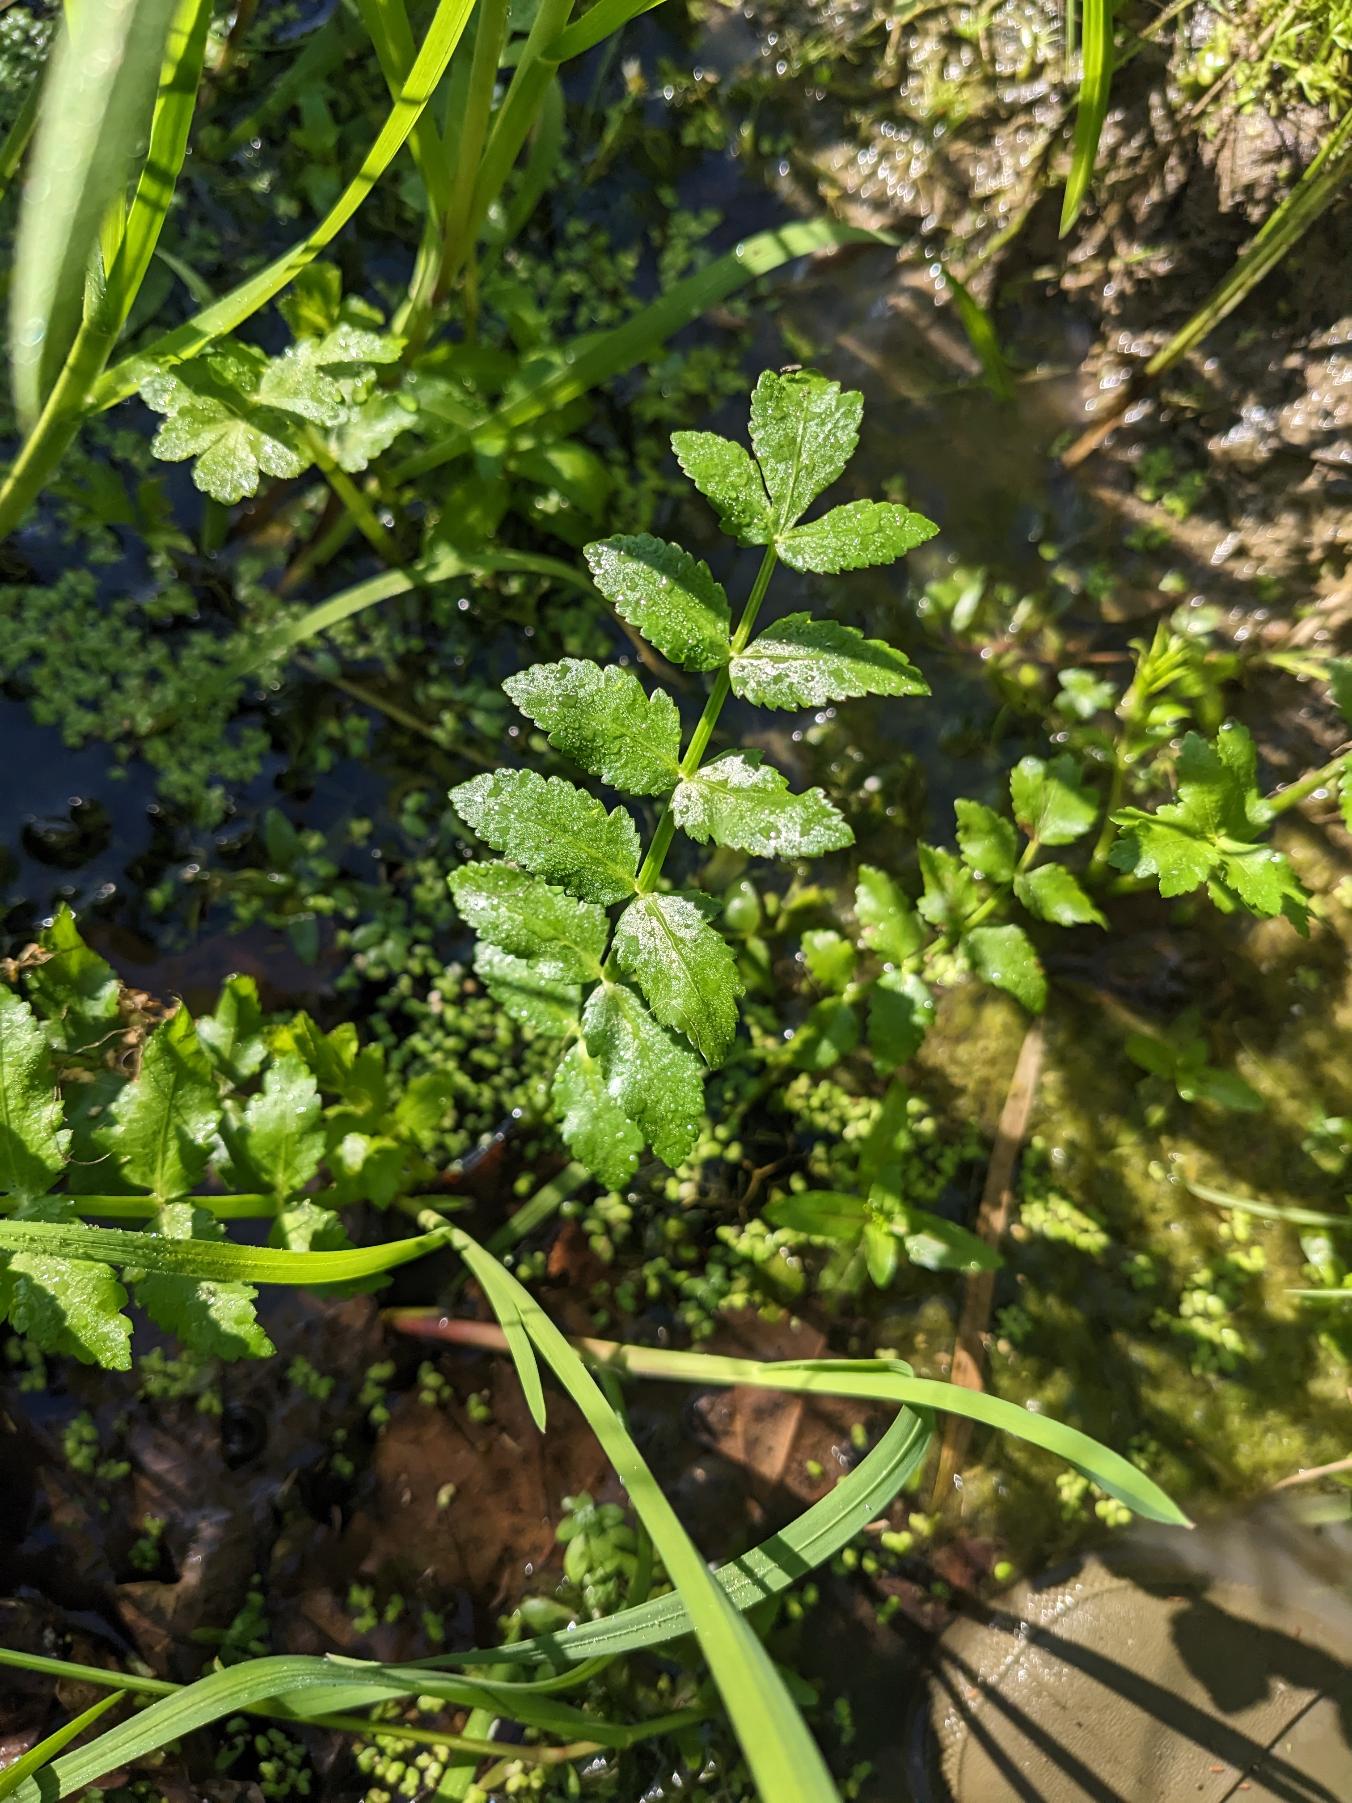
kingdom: Plantae
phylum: Tracheophyta
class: Magnoliopsida
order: Apiales
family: Apiaceae
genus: Berula
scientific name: Berula erecta
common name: Sideskærm
